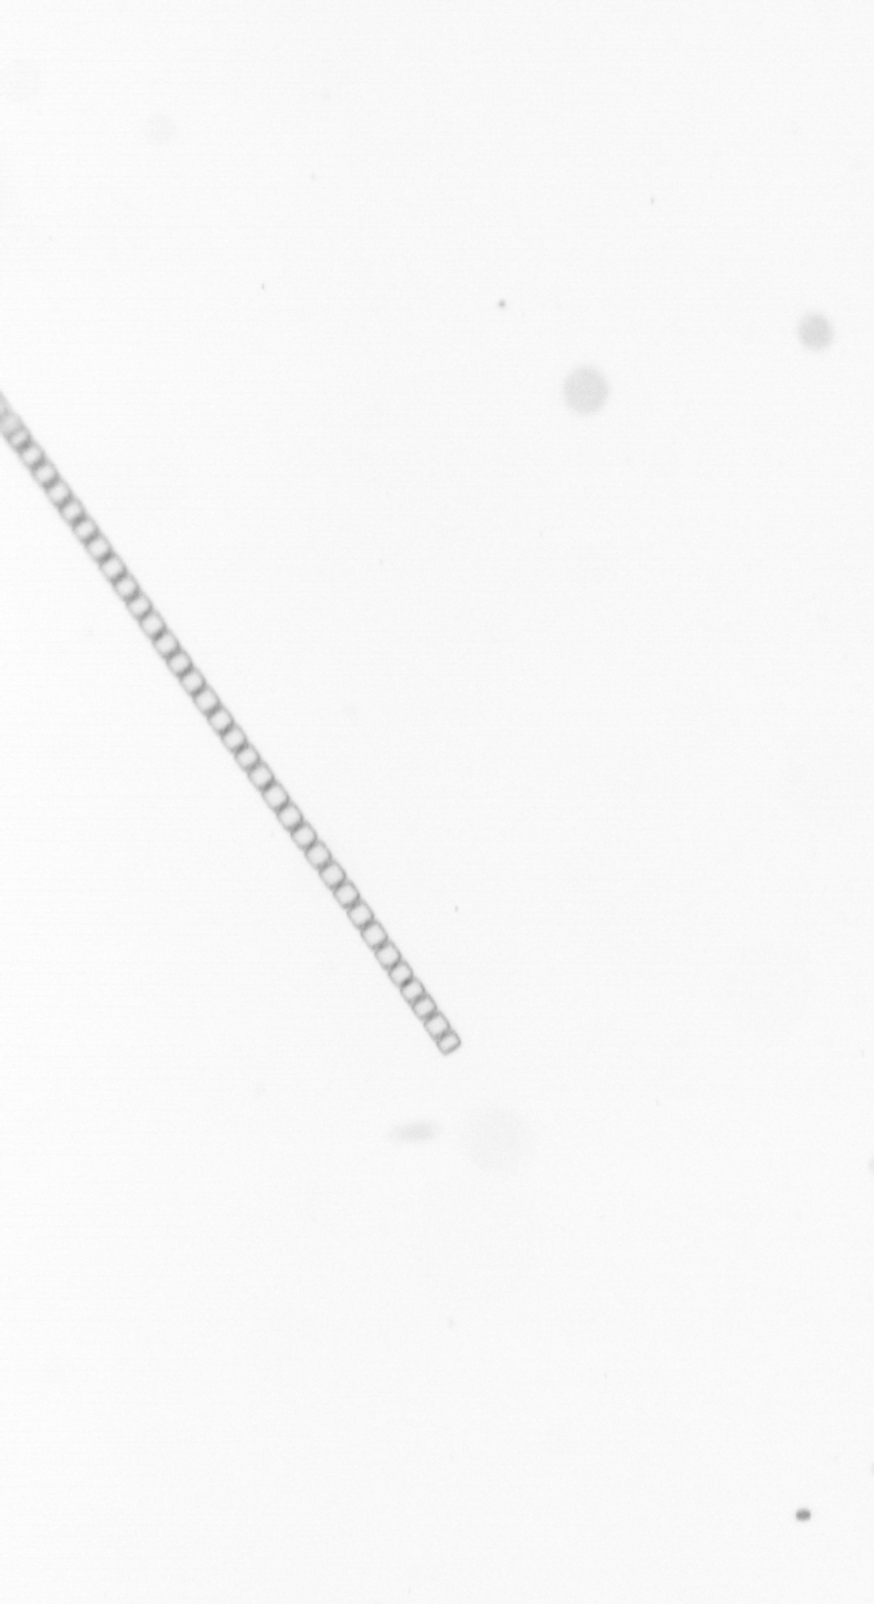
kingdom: Chromista
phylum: Ochrophyta
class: Bacillariophyceae
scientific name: Bacillariophyceae
